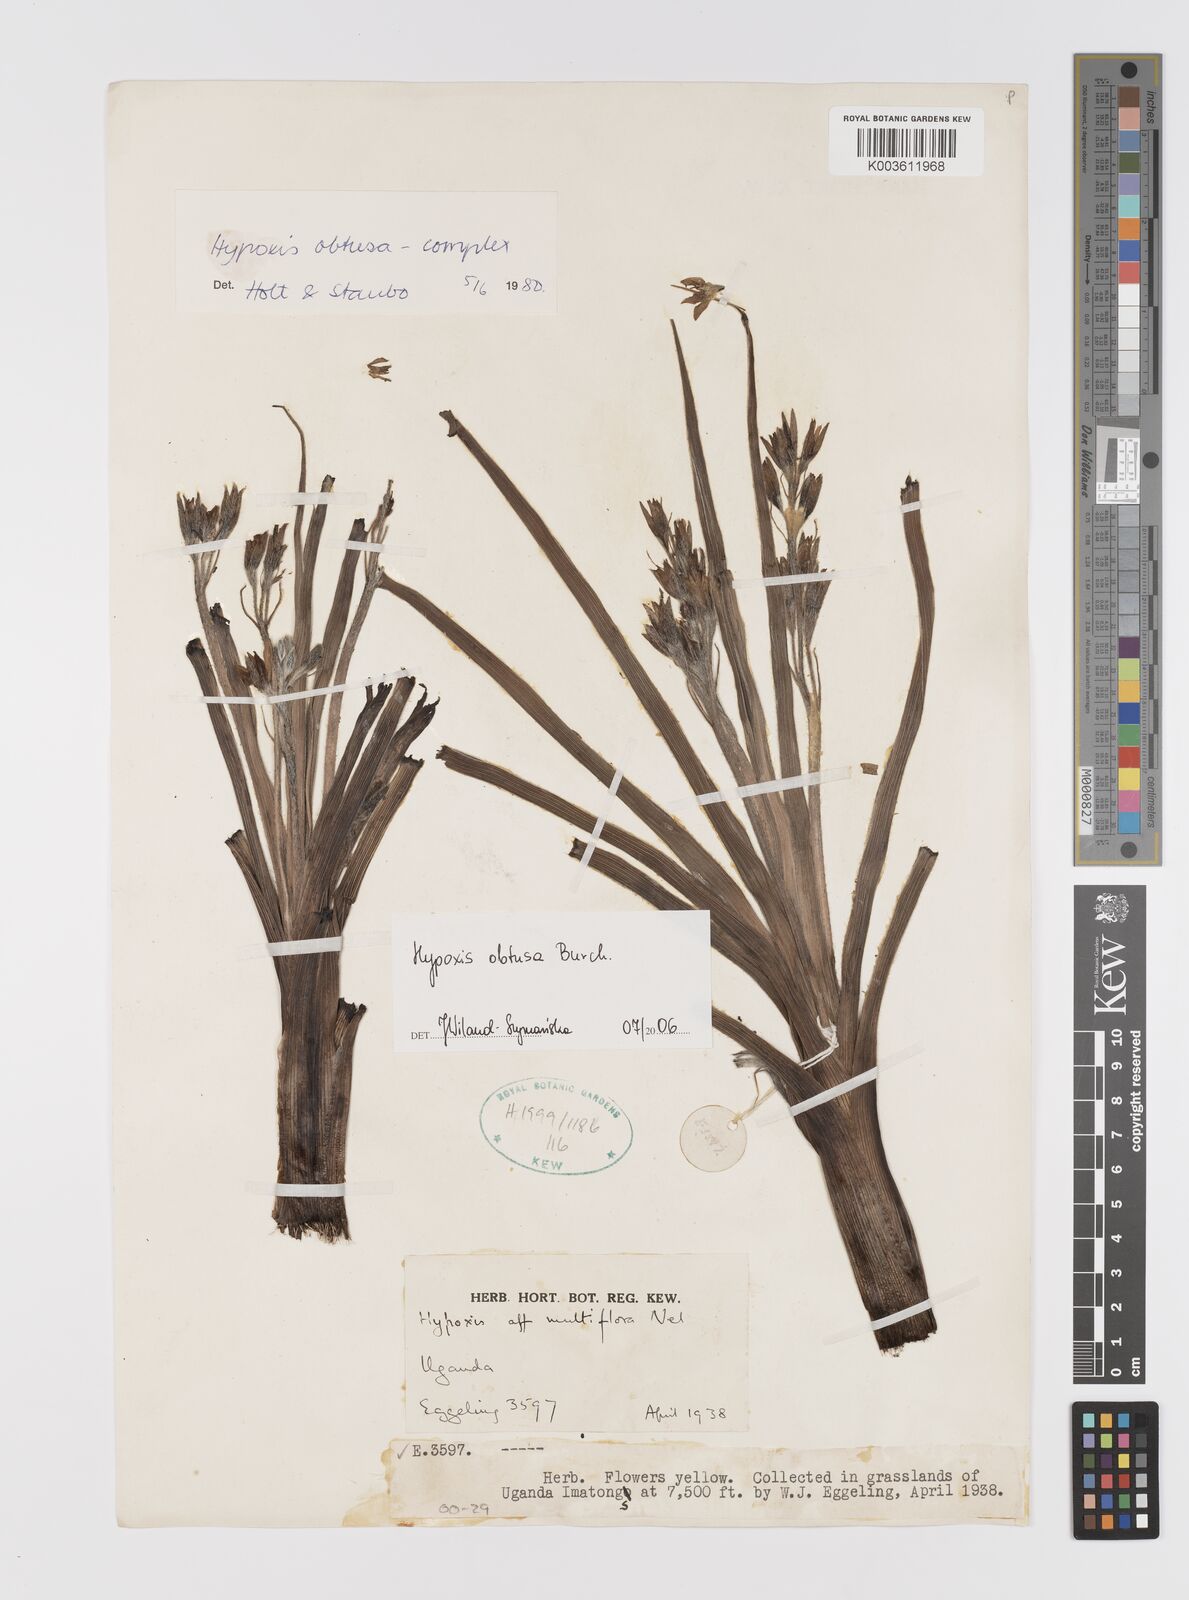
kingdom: Plantae
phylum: Tracheophyta
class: Liliopsida
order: Asparagales
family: Hypoxidaceae
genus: Hypoxis
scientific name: Hypoxis obtusa
